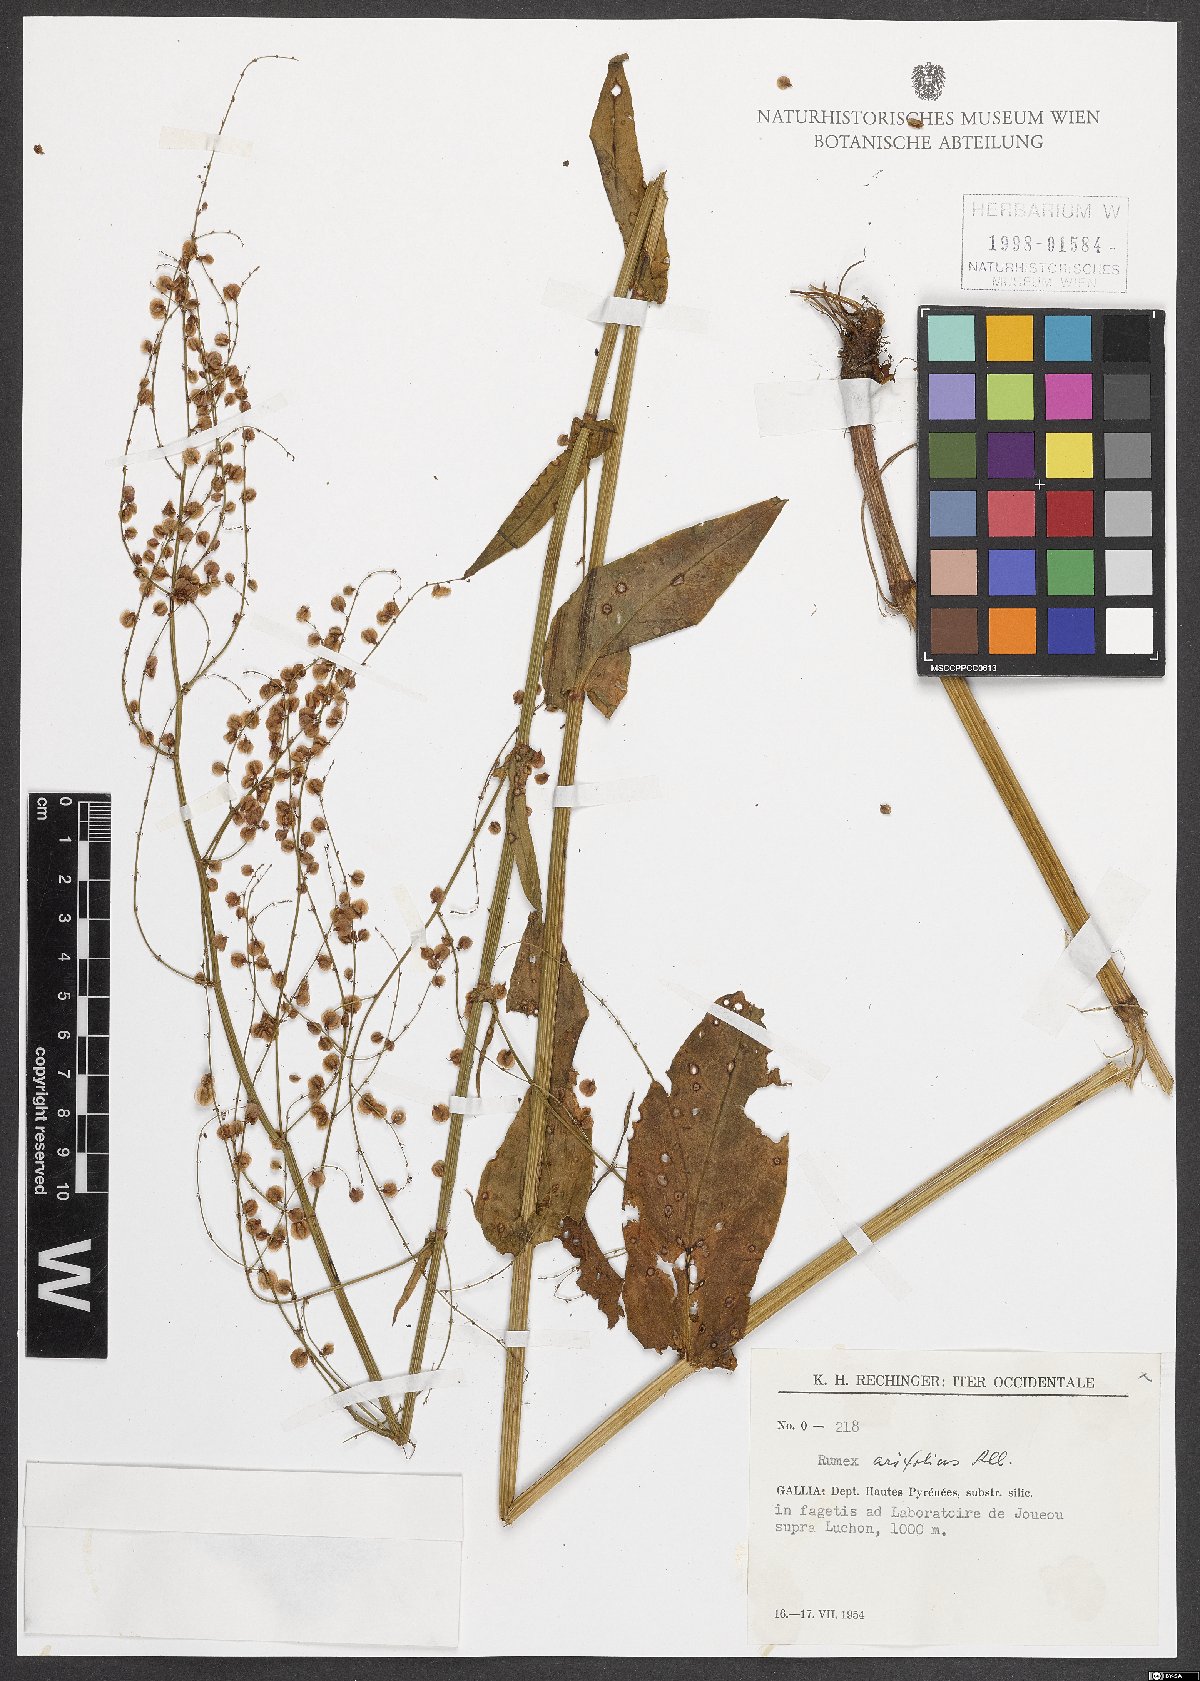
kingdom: Plantae
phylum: Tracheophyta
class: Magnoliopsida
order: Caryophyllales
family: Polygonaceae
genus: Rumex
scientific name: Rumex arifolius
